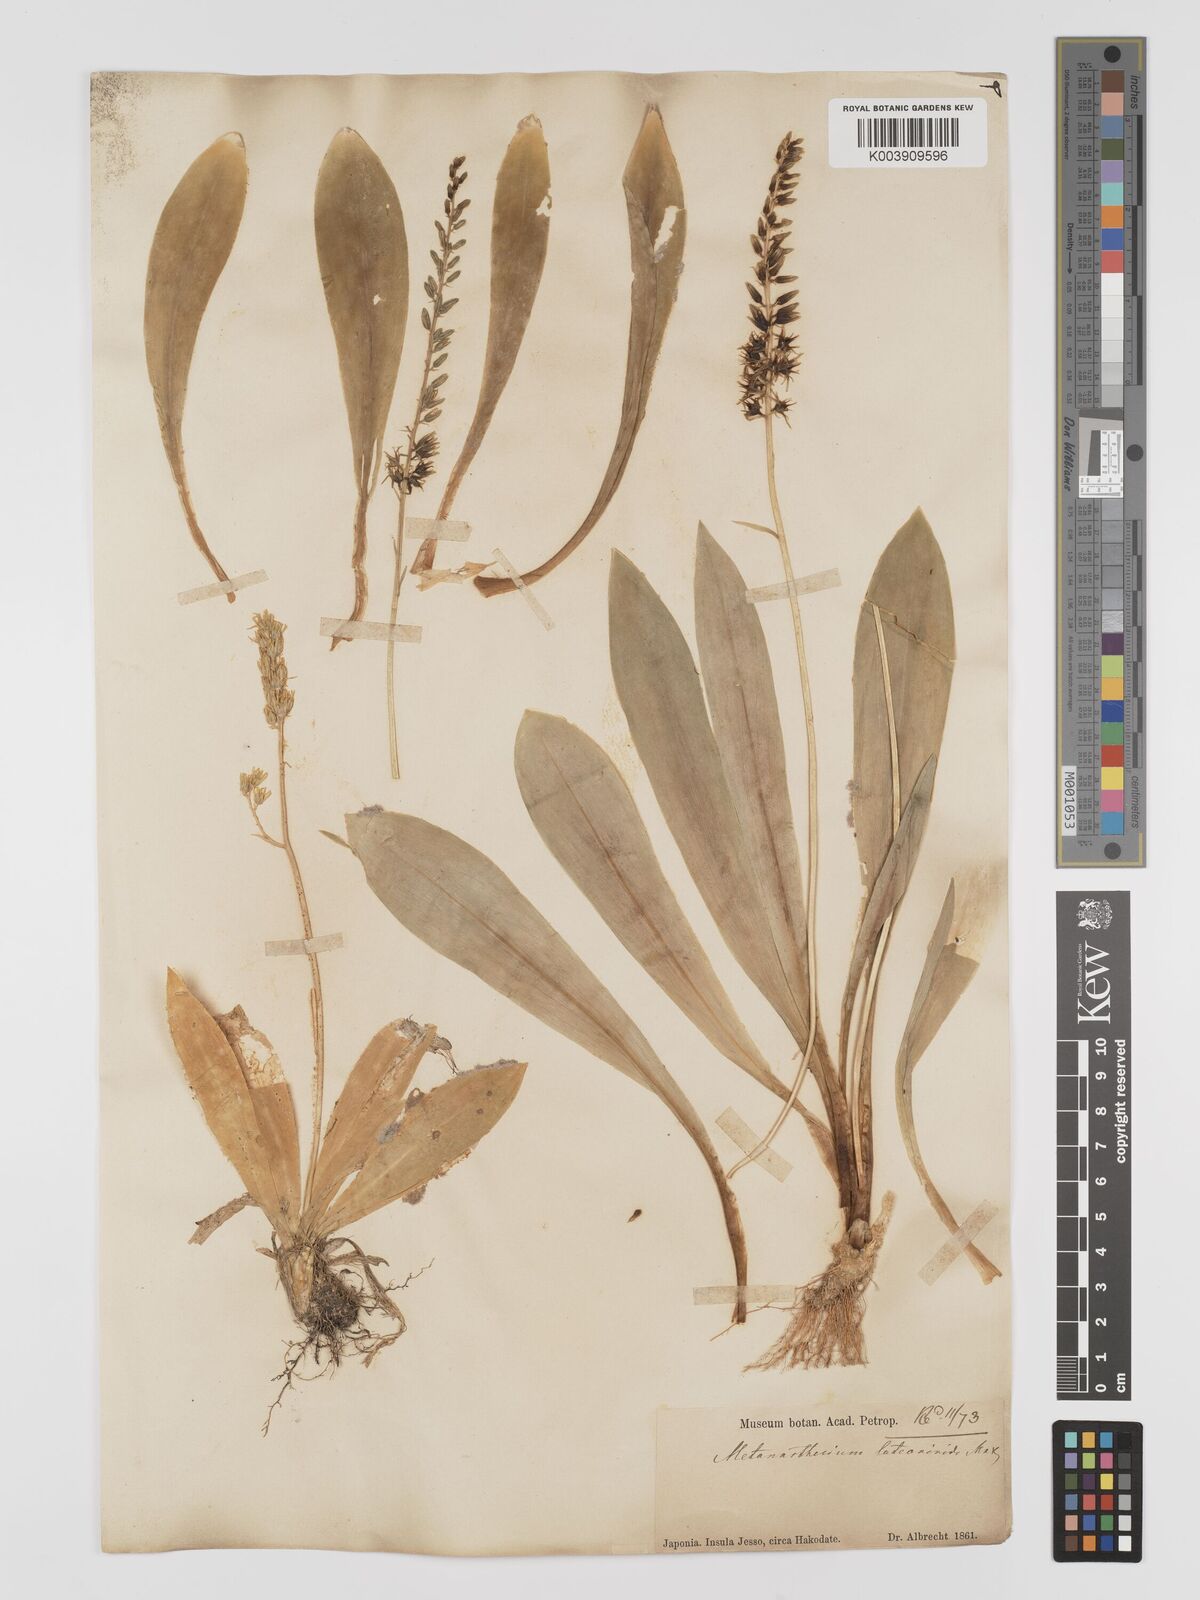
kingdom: Plantae
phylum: Tracheophyta
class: Liliopsida
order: Dioscoreales
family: Nartheciaceae
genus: Metanarthecium
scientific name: Metanarthecium luteoviride
